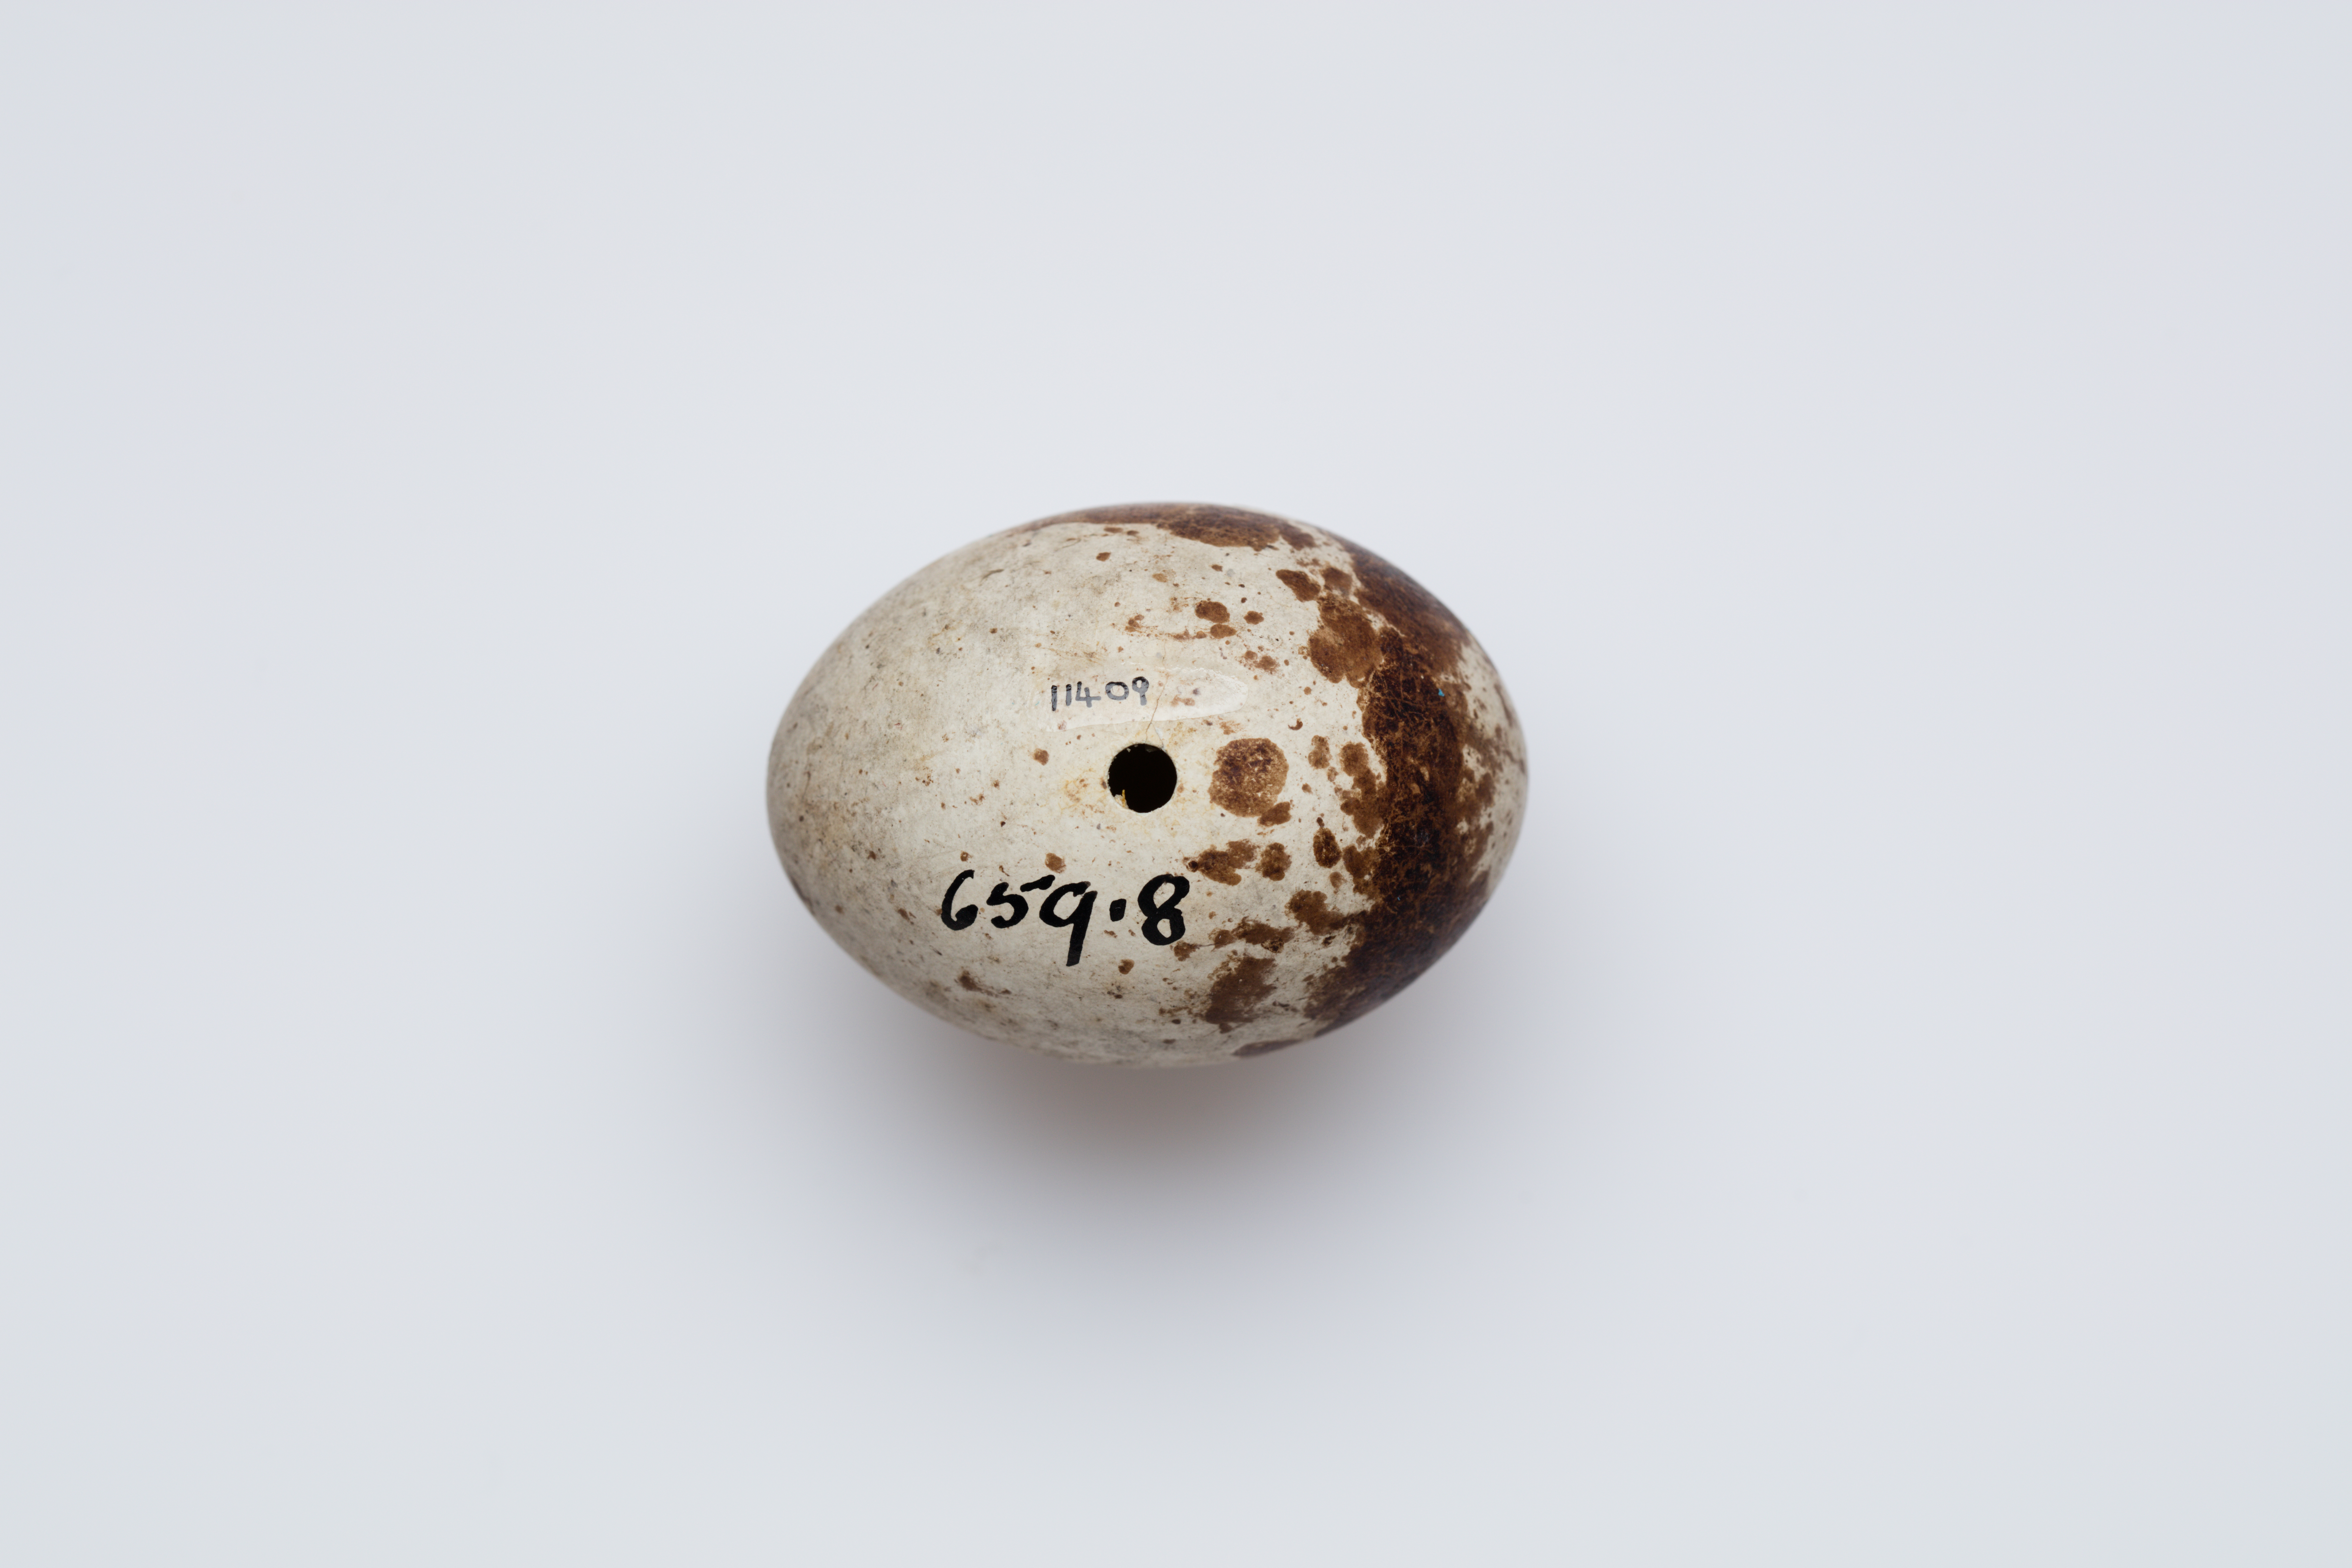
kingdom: Animalia
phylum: Chordata
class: Aves
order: Accipitriformes
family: Accipitridae
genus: Accipiter
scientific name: Accipiter nisus
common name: Eurasian sparrowhawk
